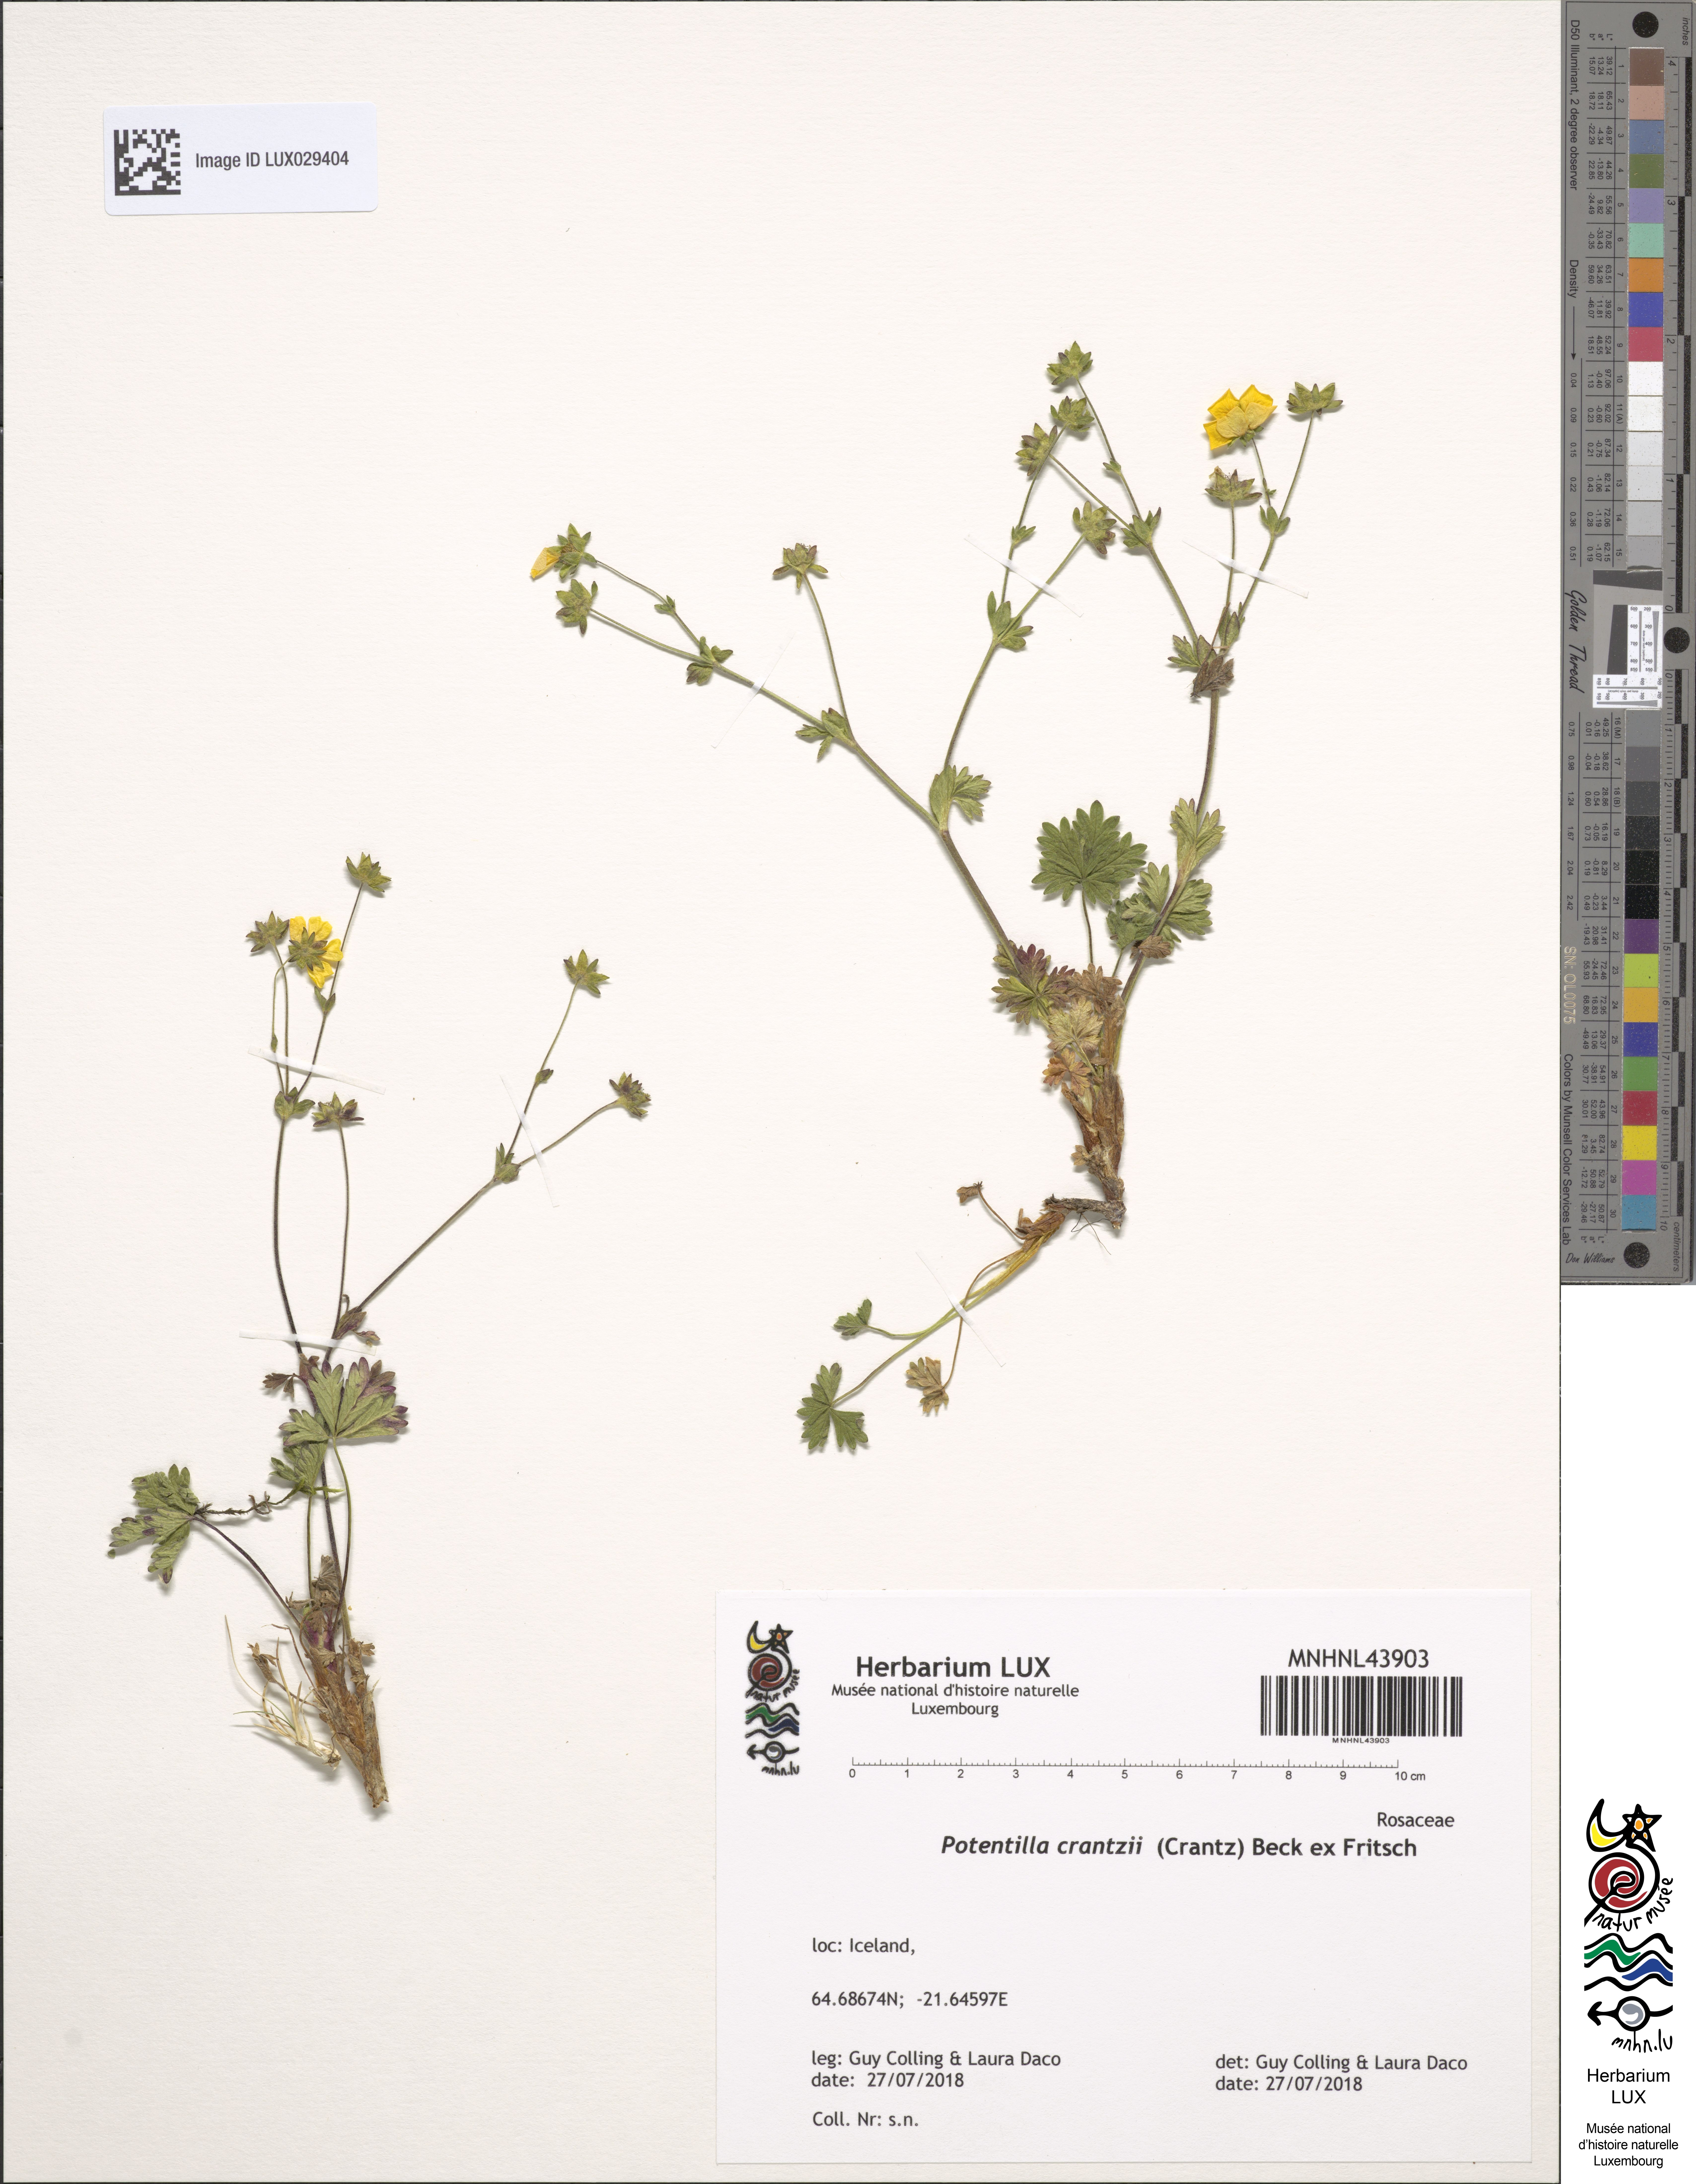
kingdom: Plantae
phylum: Tracheophyta
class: Magnoliopsida
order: Rosales
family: Rosaceae
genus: Potentilla
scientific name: Potentilla crantzii
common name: Alpine cinquefoil
